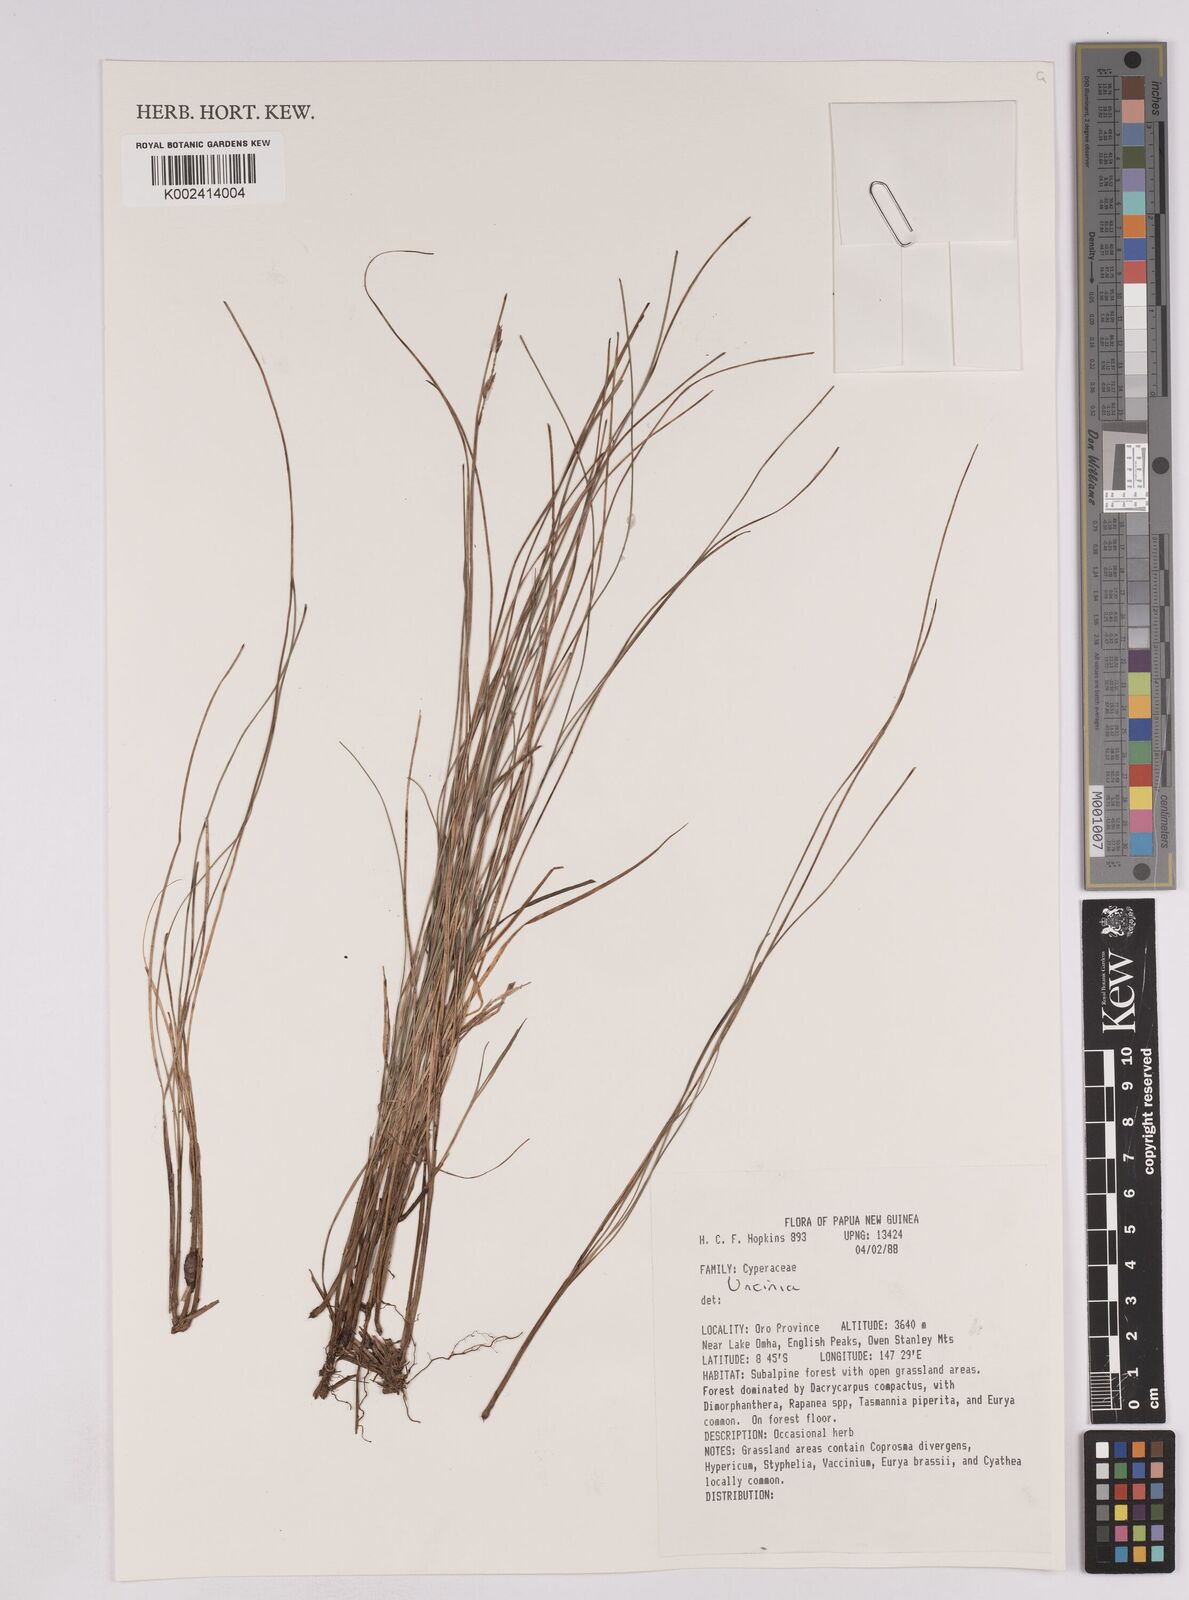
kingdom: Fungi
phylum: Ascomycota
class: Leotiomycetes
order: Helotiales
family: Hamatocanthoscyphaceae
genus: Uncinia
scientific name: Uncinia
